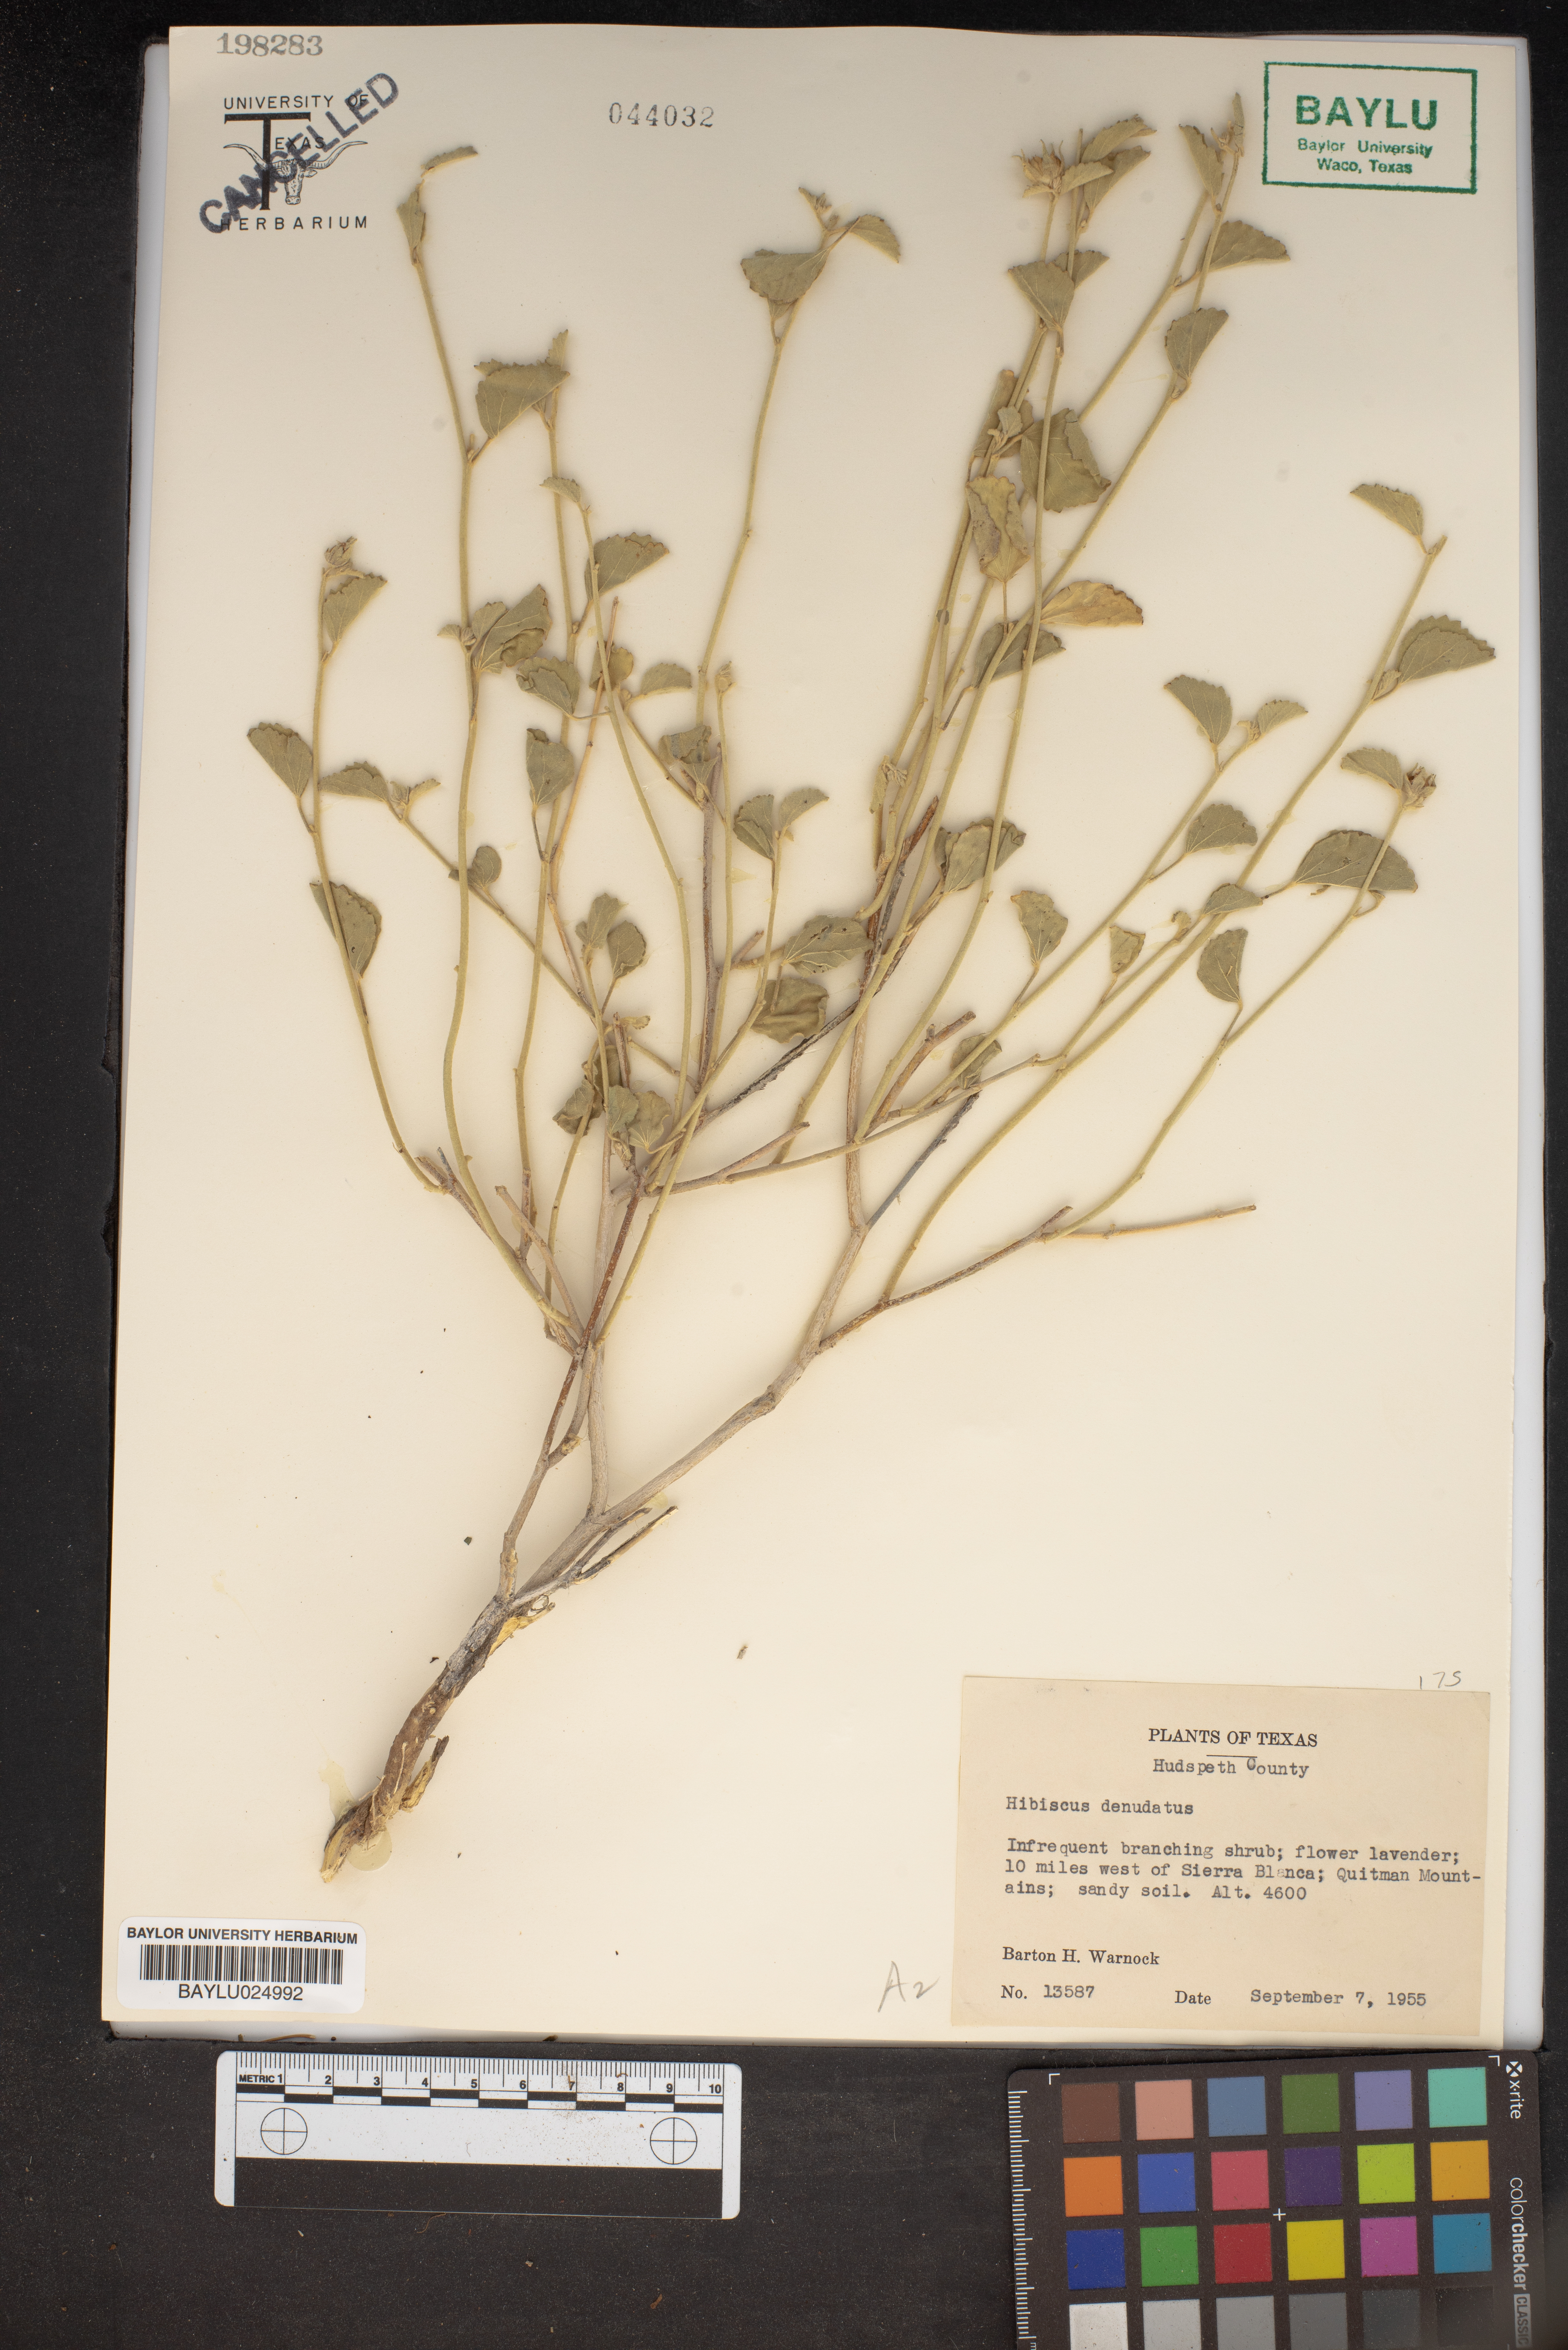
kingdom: Plantae
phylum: Tracheophyta
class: Magnoliopsida
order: Malvales
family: Malvaceae
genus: Hibiscus
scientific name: Hibiscus denudatus
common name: Paleface
